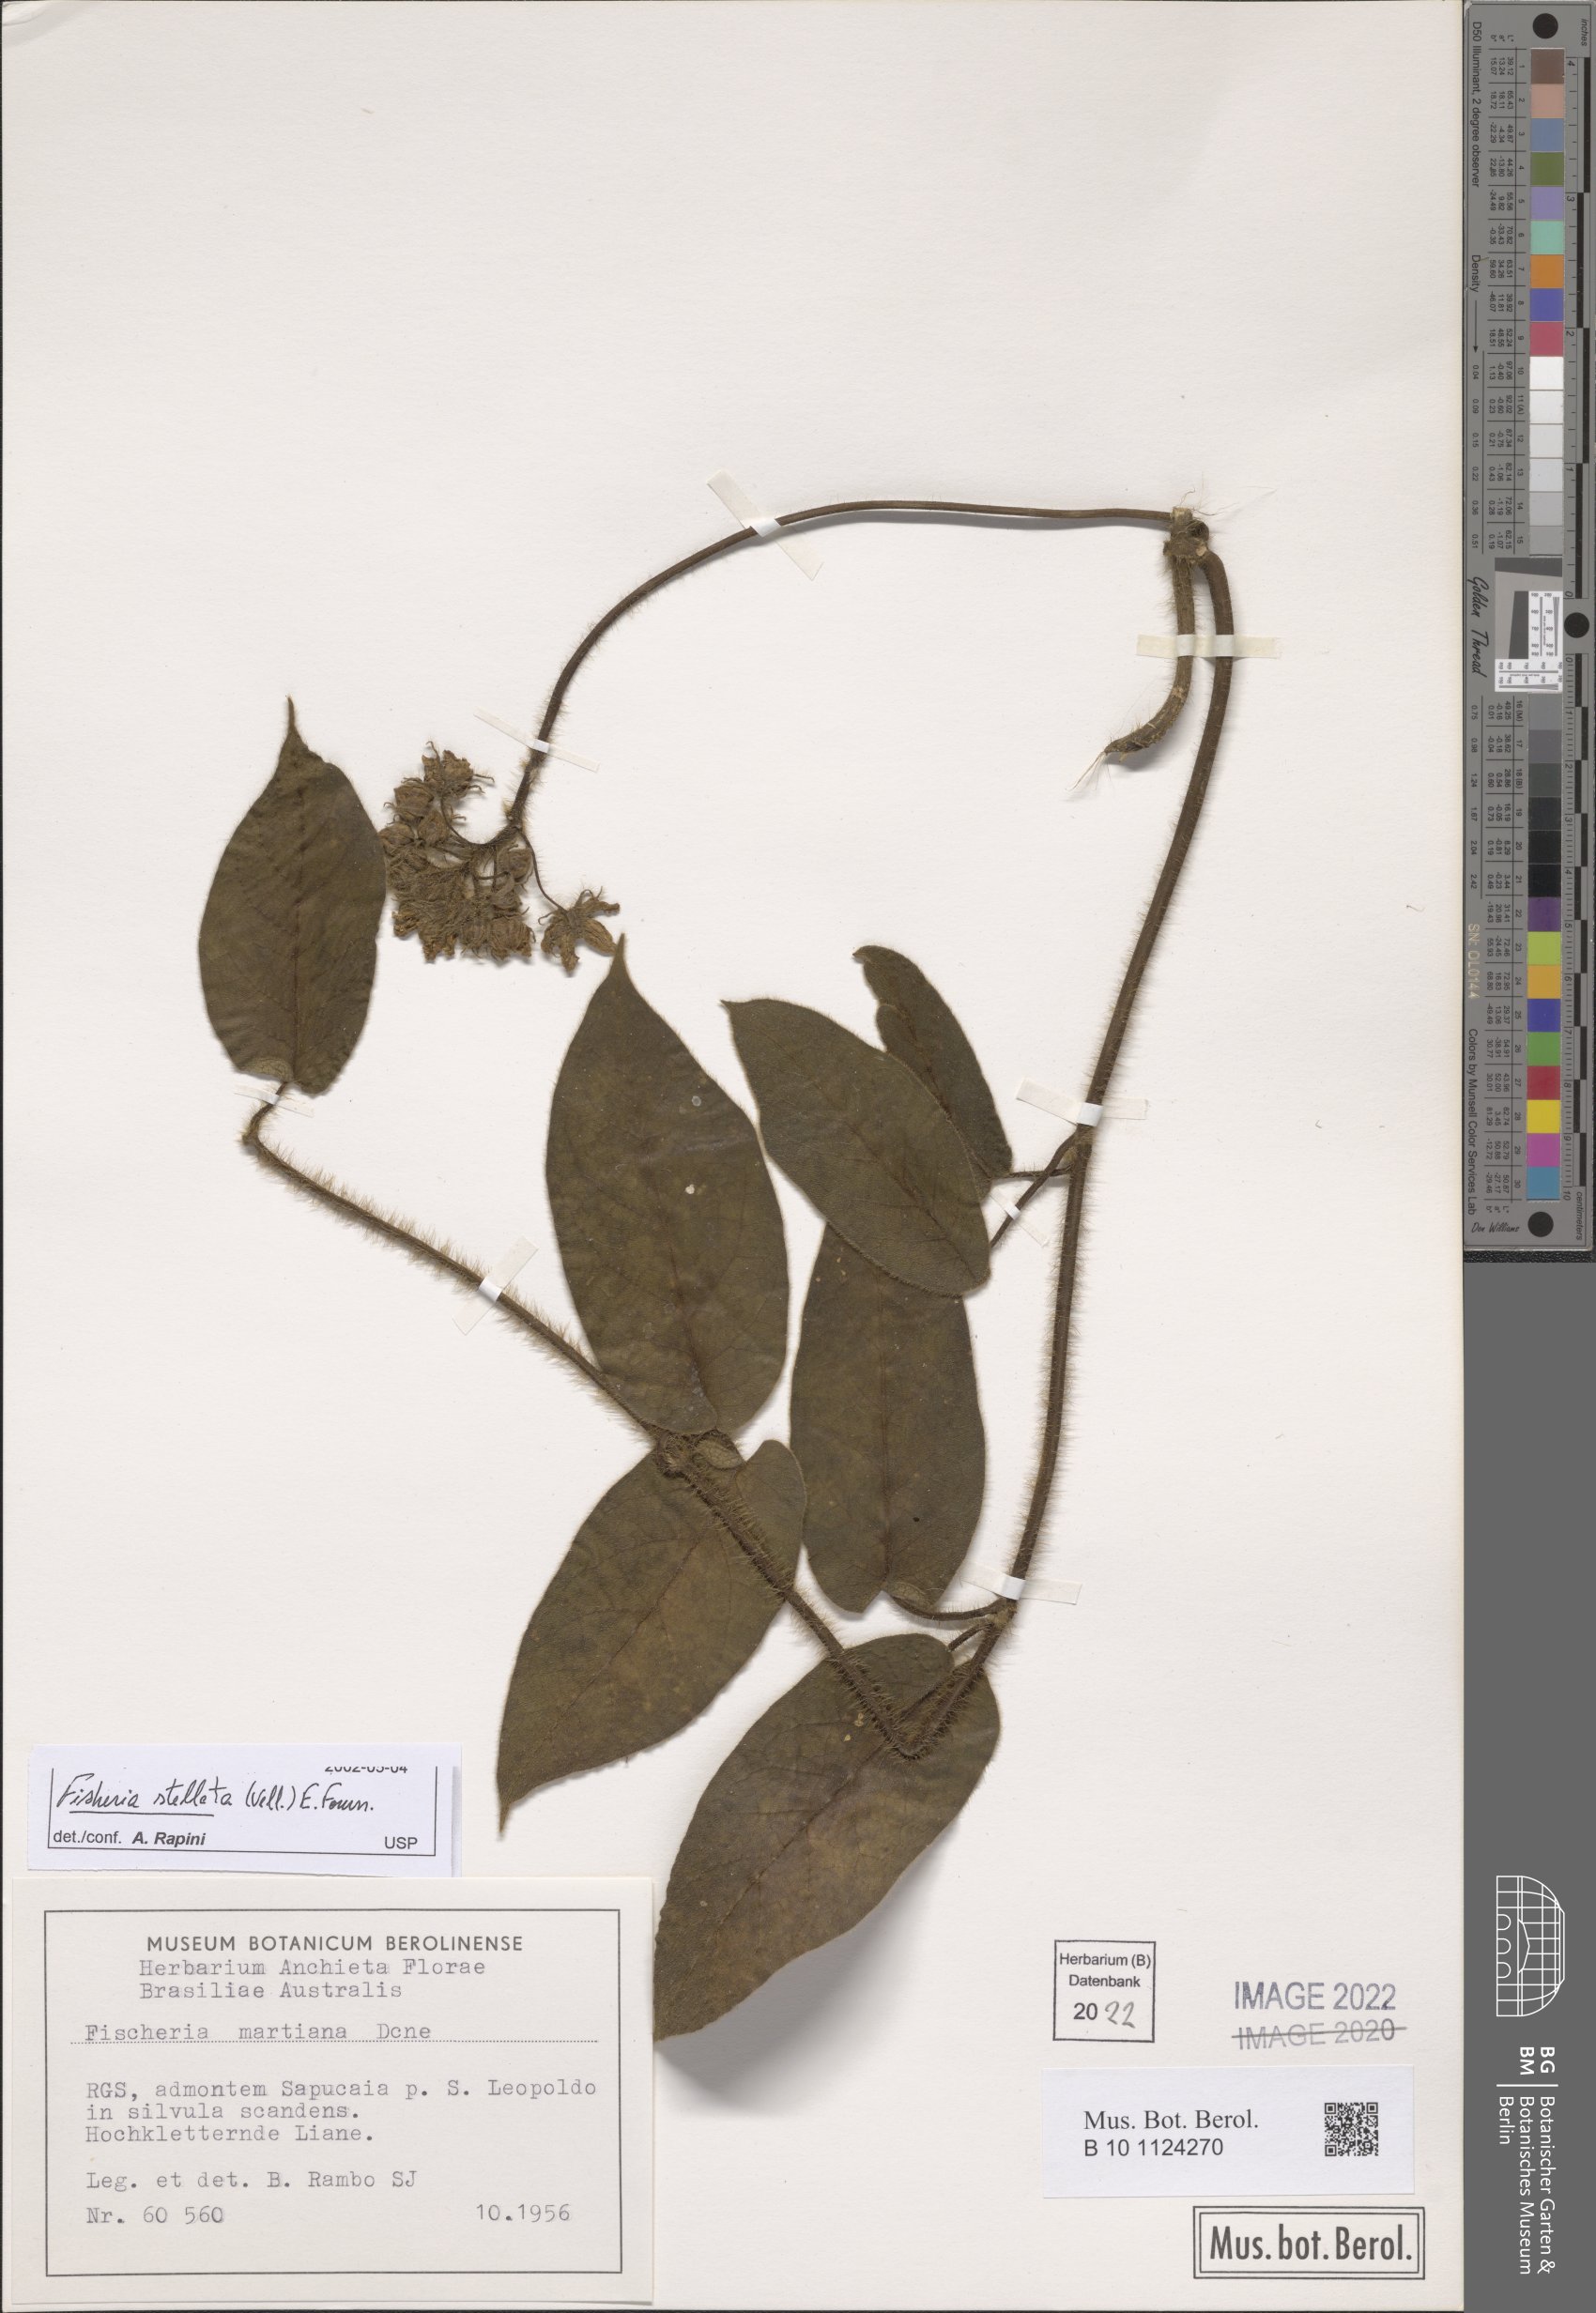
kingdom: Plantae
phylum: Tracheophyta
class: Magnoliopsida
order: Gentianales
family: Apocynaceae
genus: Fischeria
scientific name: Fischeria stellata
